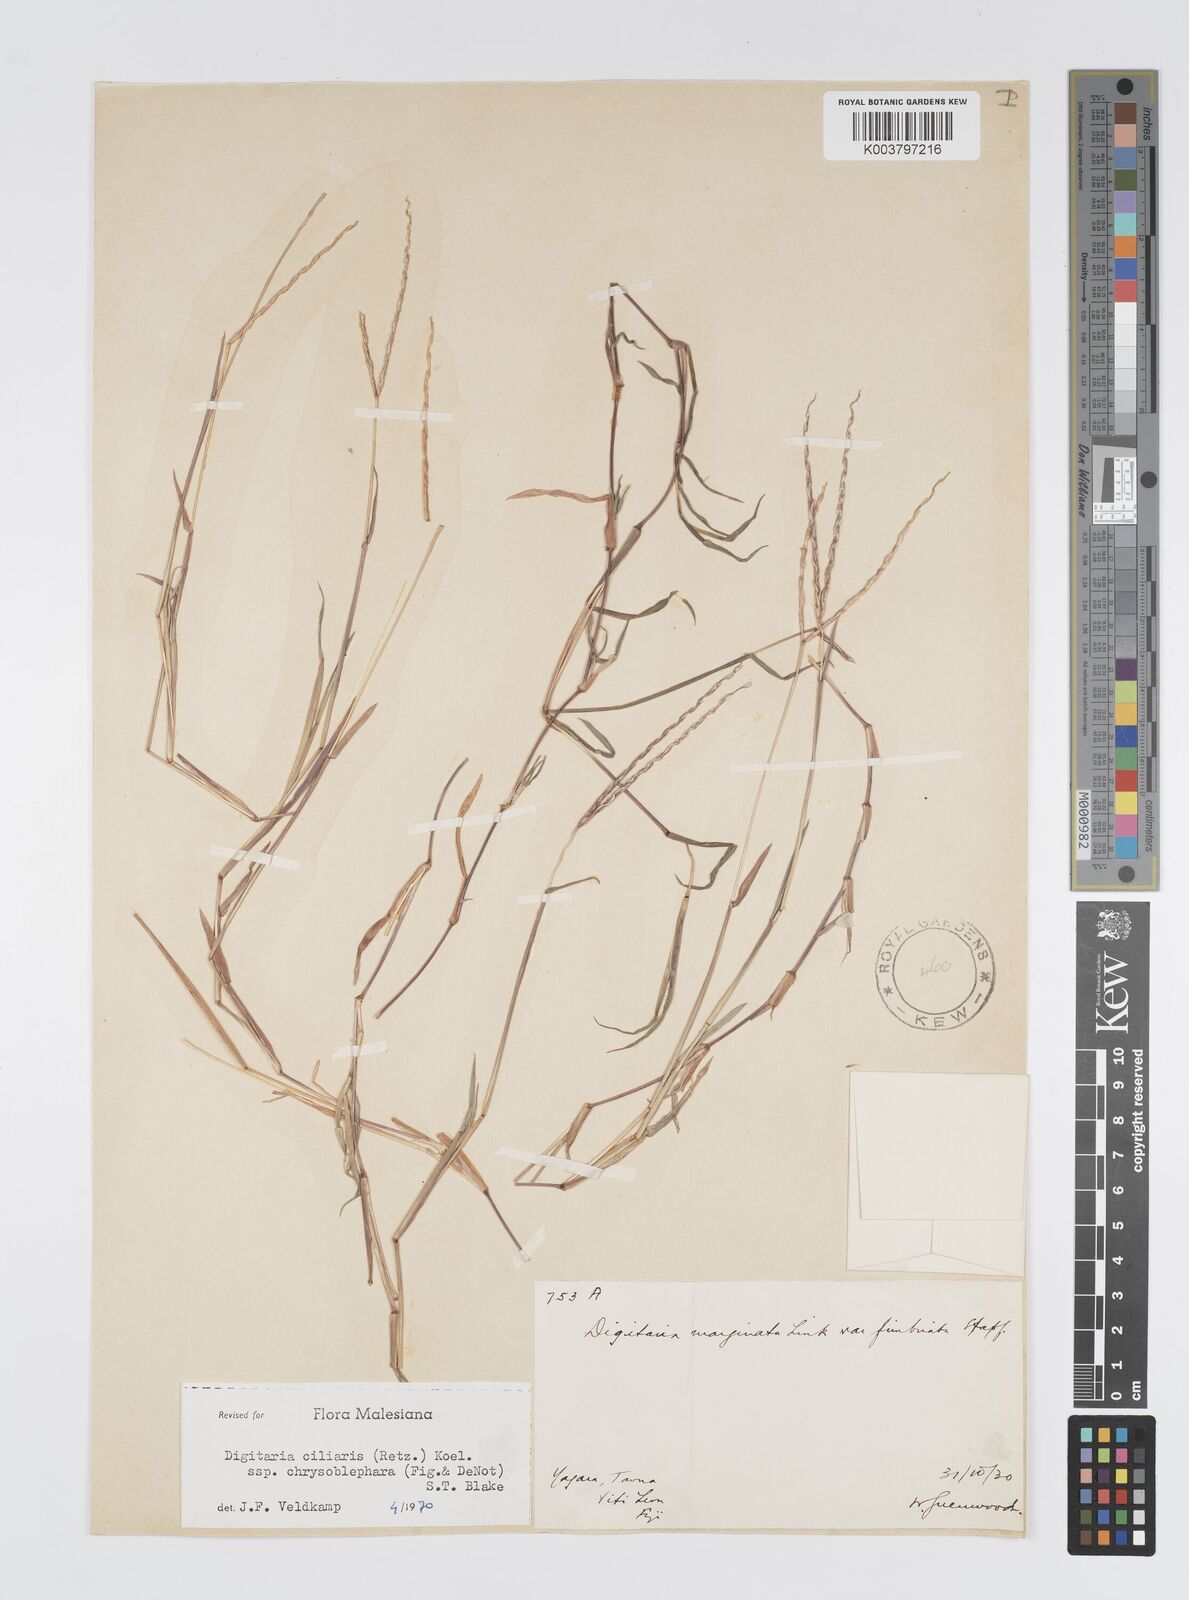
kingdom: Plantae
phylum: Tracheophyta
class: Liliopsida
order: Poales
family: Poaceae
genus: Digitaria
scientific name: Digitaria bicornis
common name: Asian crabgrass
